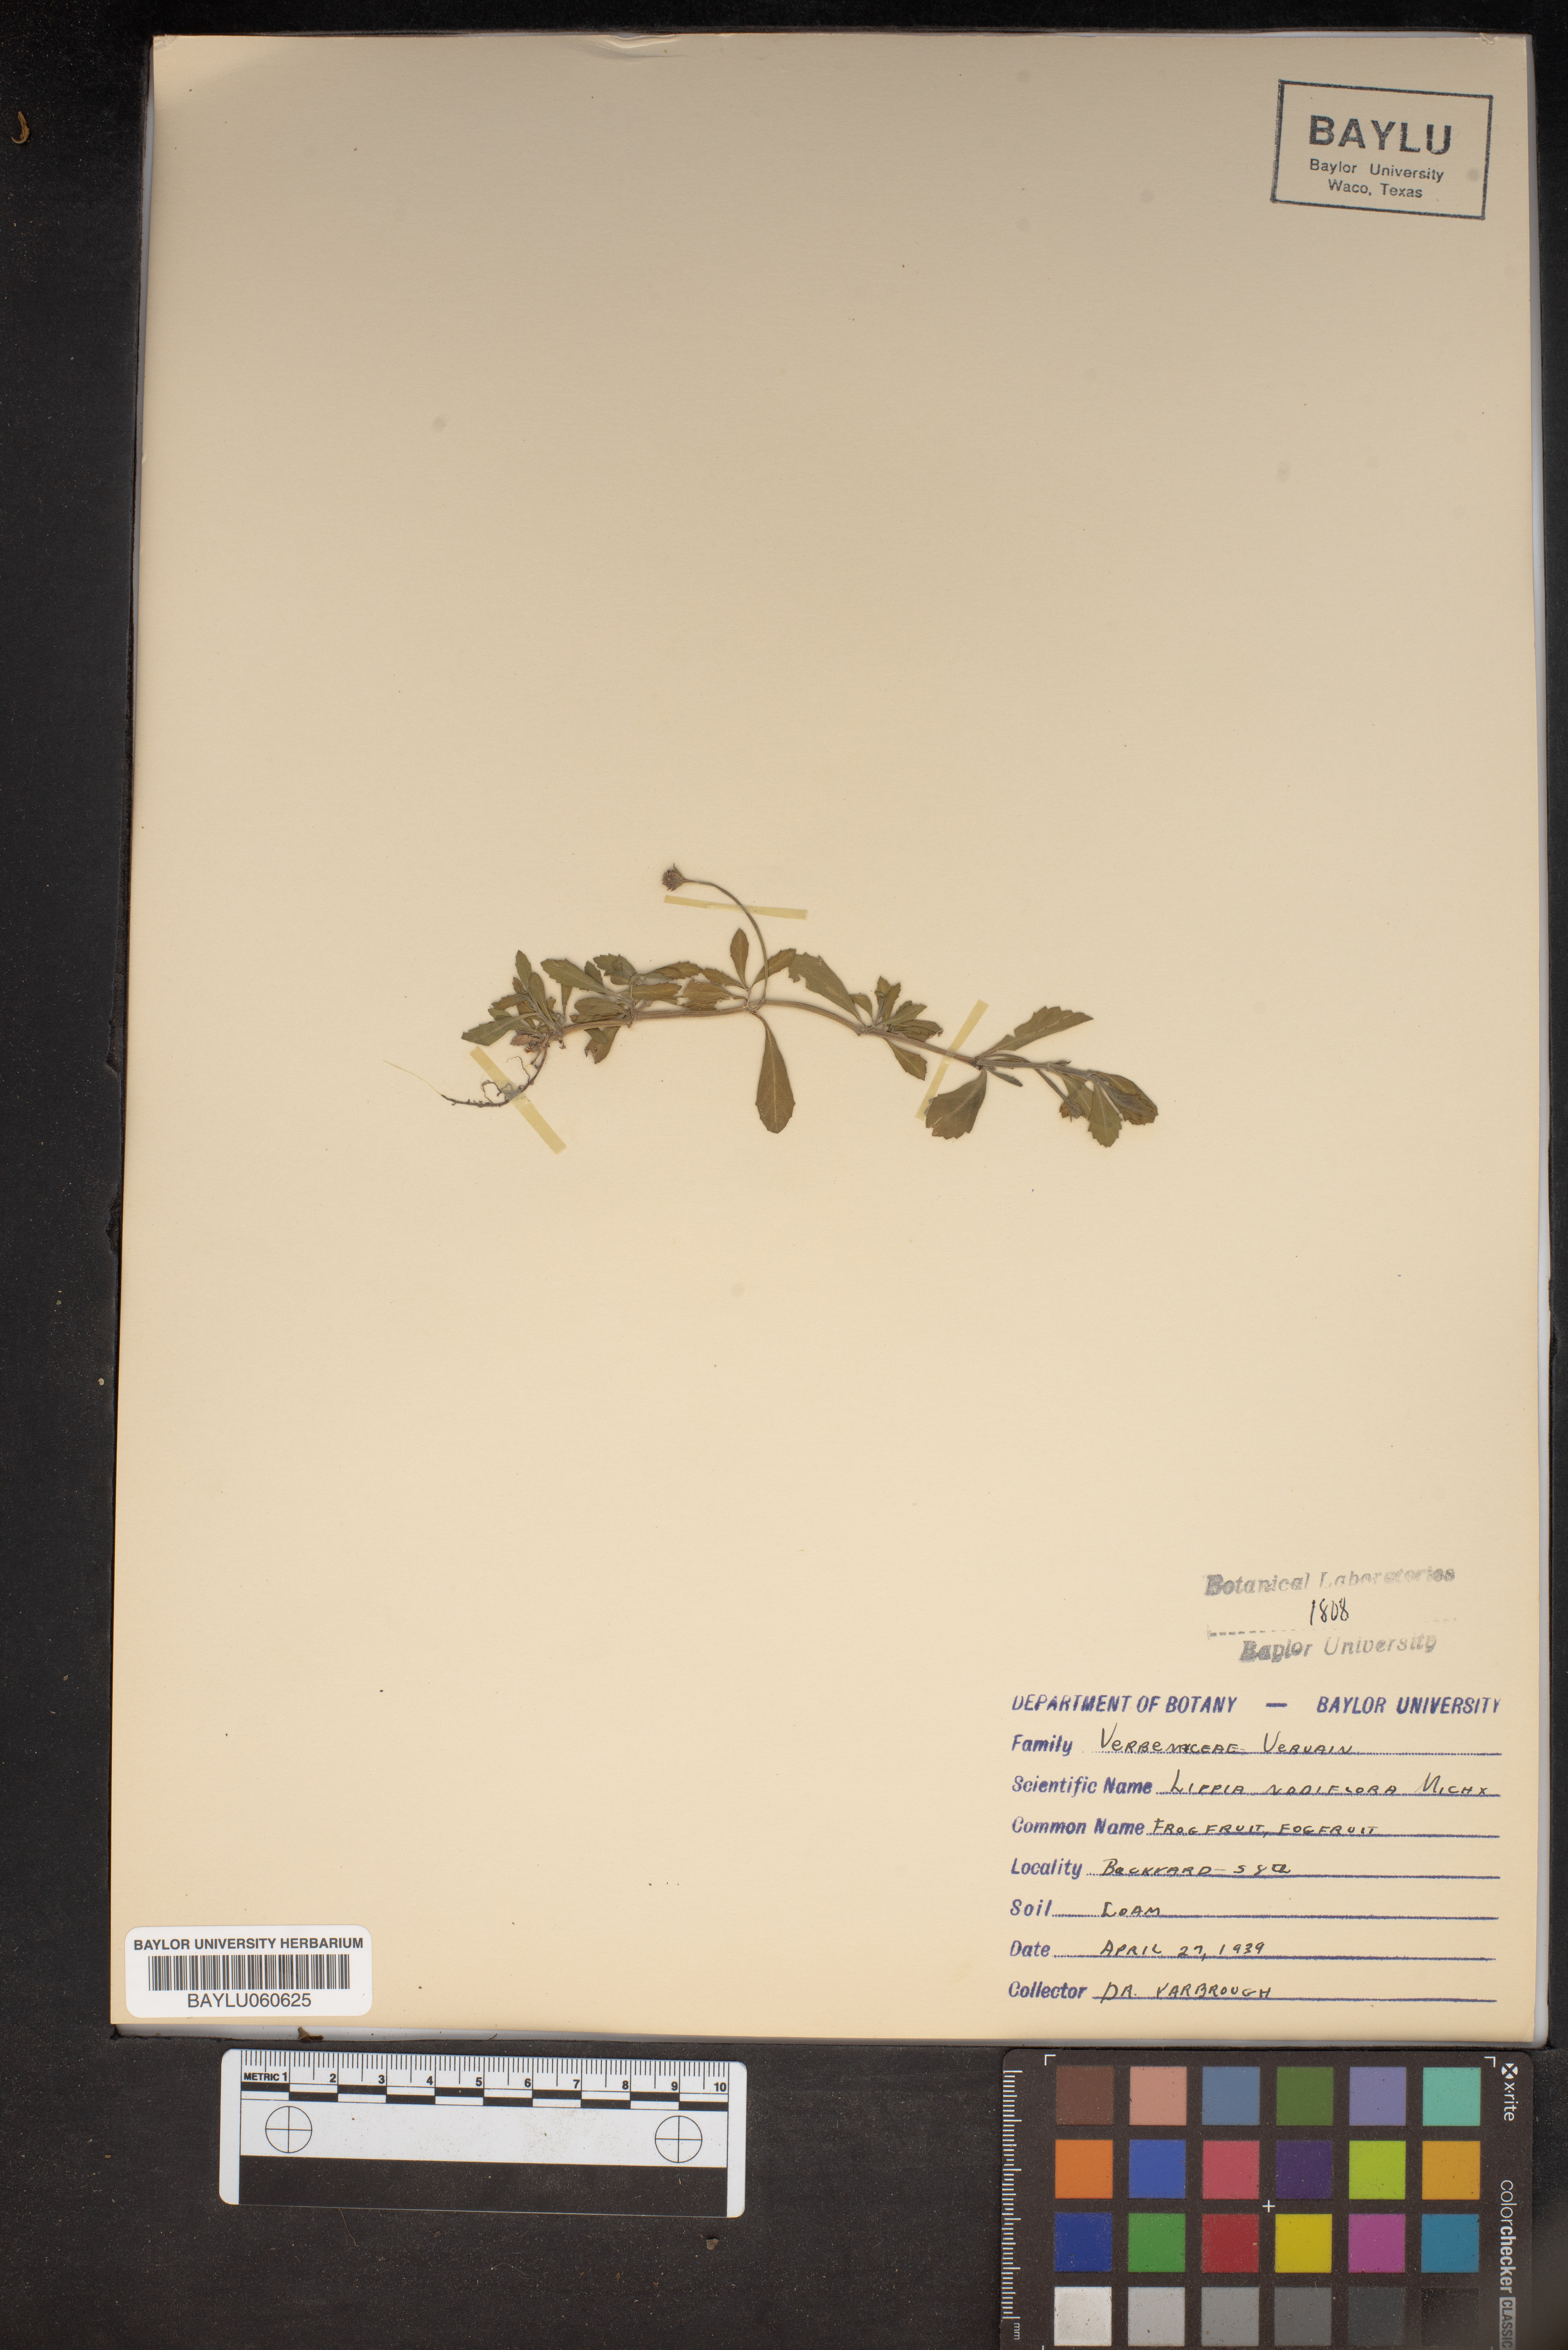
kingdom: Plantae
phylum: Tracheophyta
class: Magnoliopsida
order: Lamiales
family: Verbenaceae
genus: Phyla
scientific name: Phyla nodiflora
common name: Frogfruit
